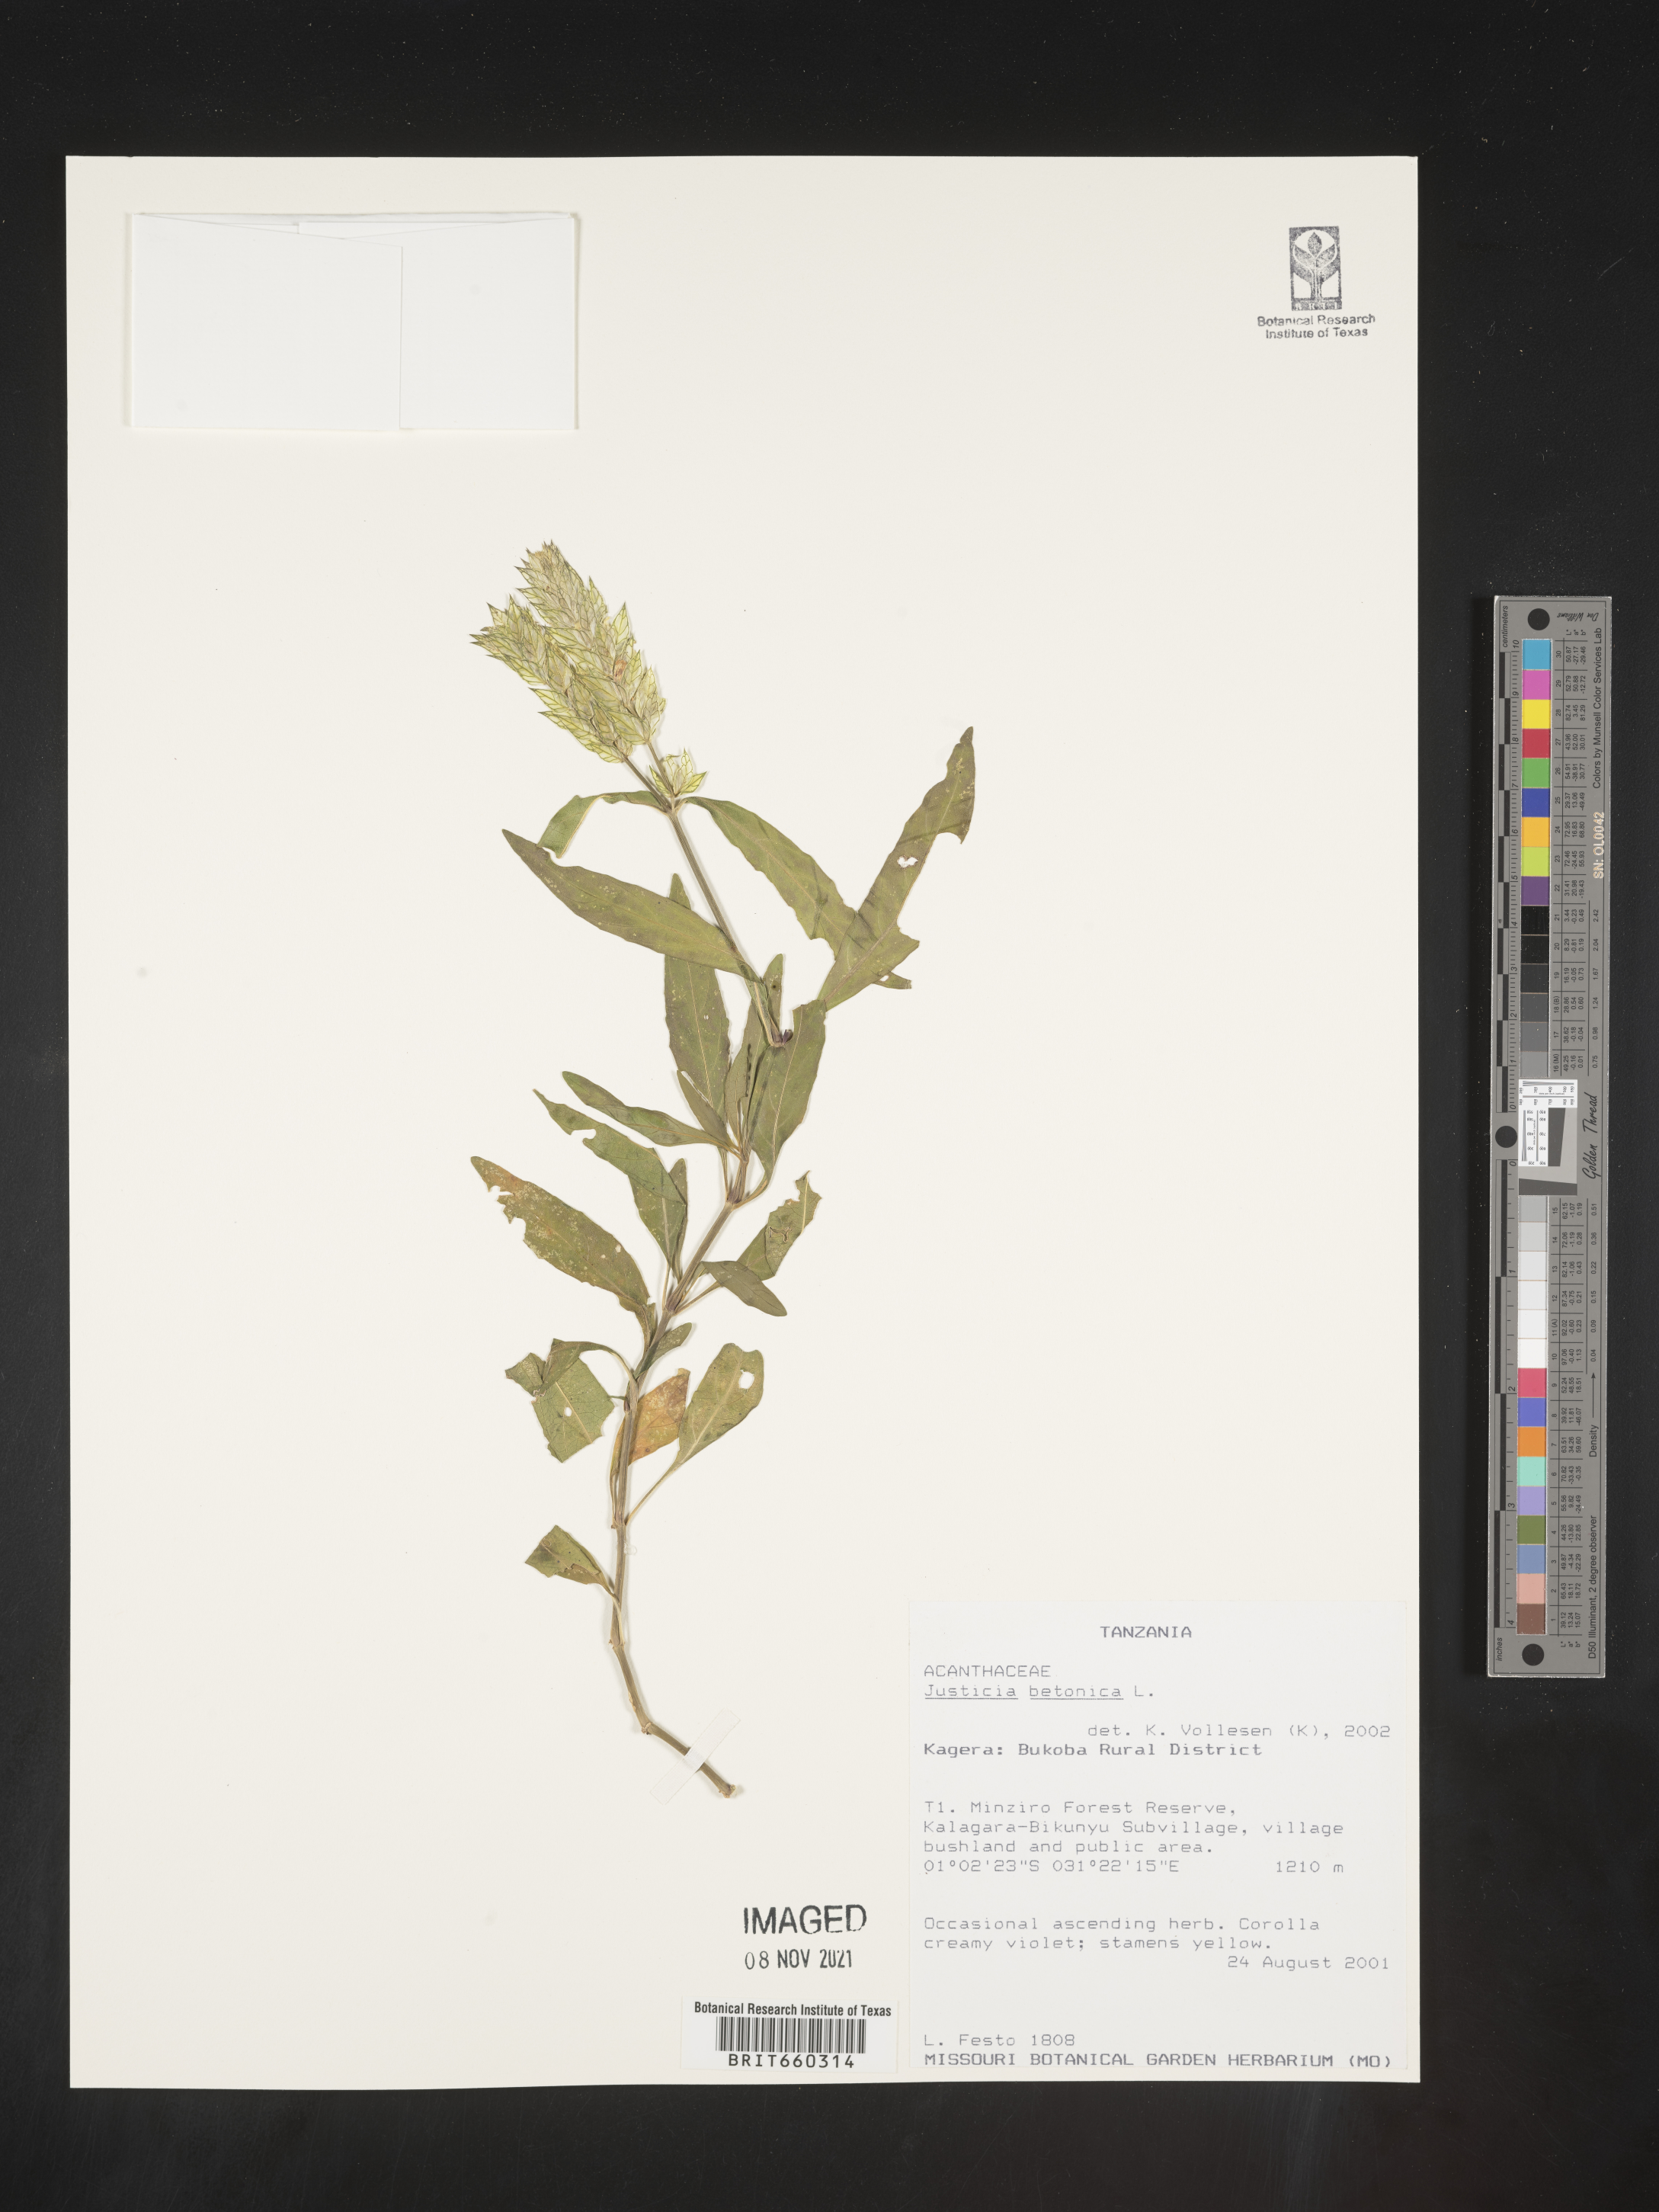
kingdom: Plantae
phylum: Tracheophyta
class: Magnoliopsida
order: Lamiales
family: Acanthaceae
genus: Justicia
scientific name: Justicia
